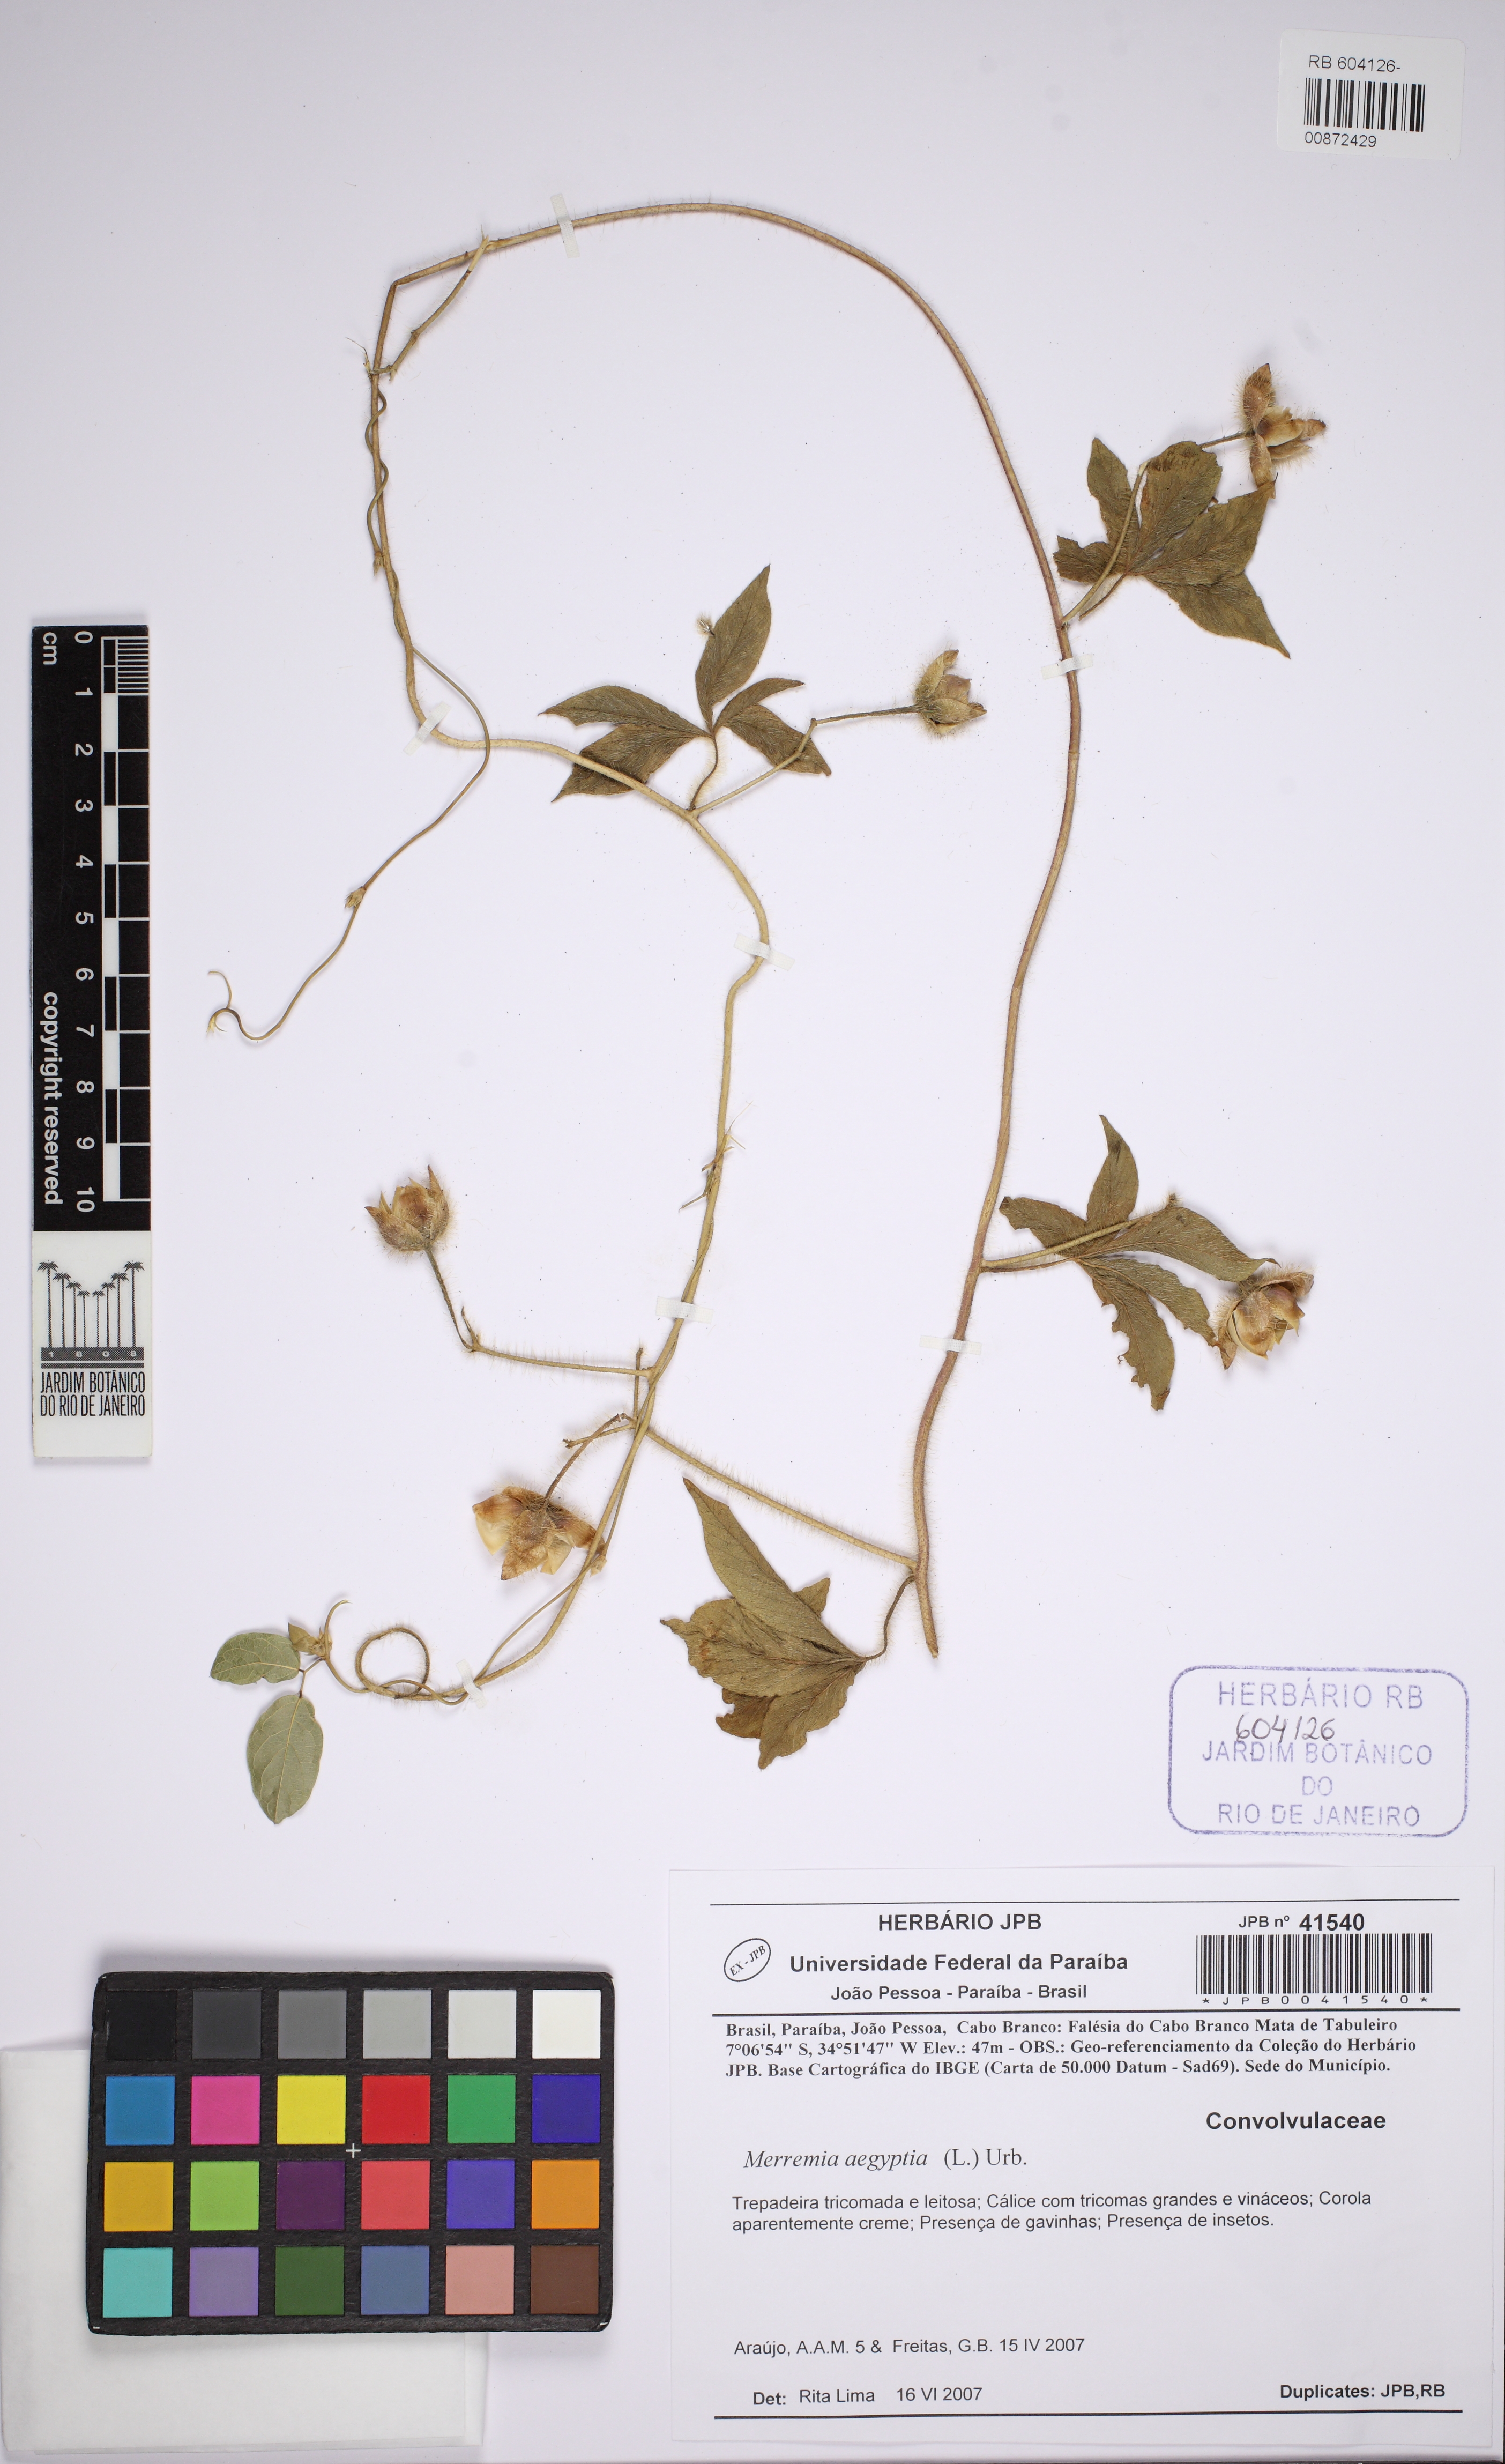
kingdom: Plantae
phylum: Tracheophyta
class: Magnoliopsida
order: Solanales
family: Convolvulaceae
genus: Distimake
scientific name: Distimake aegyptius
